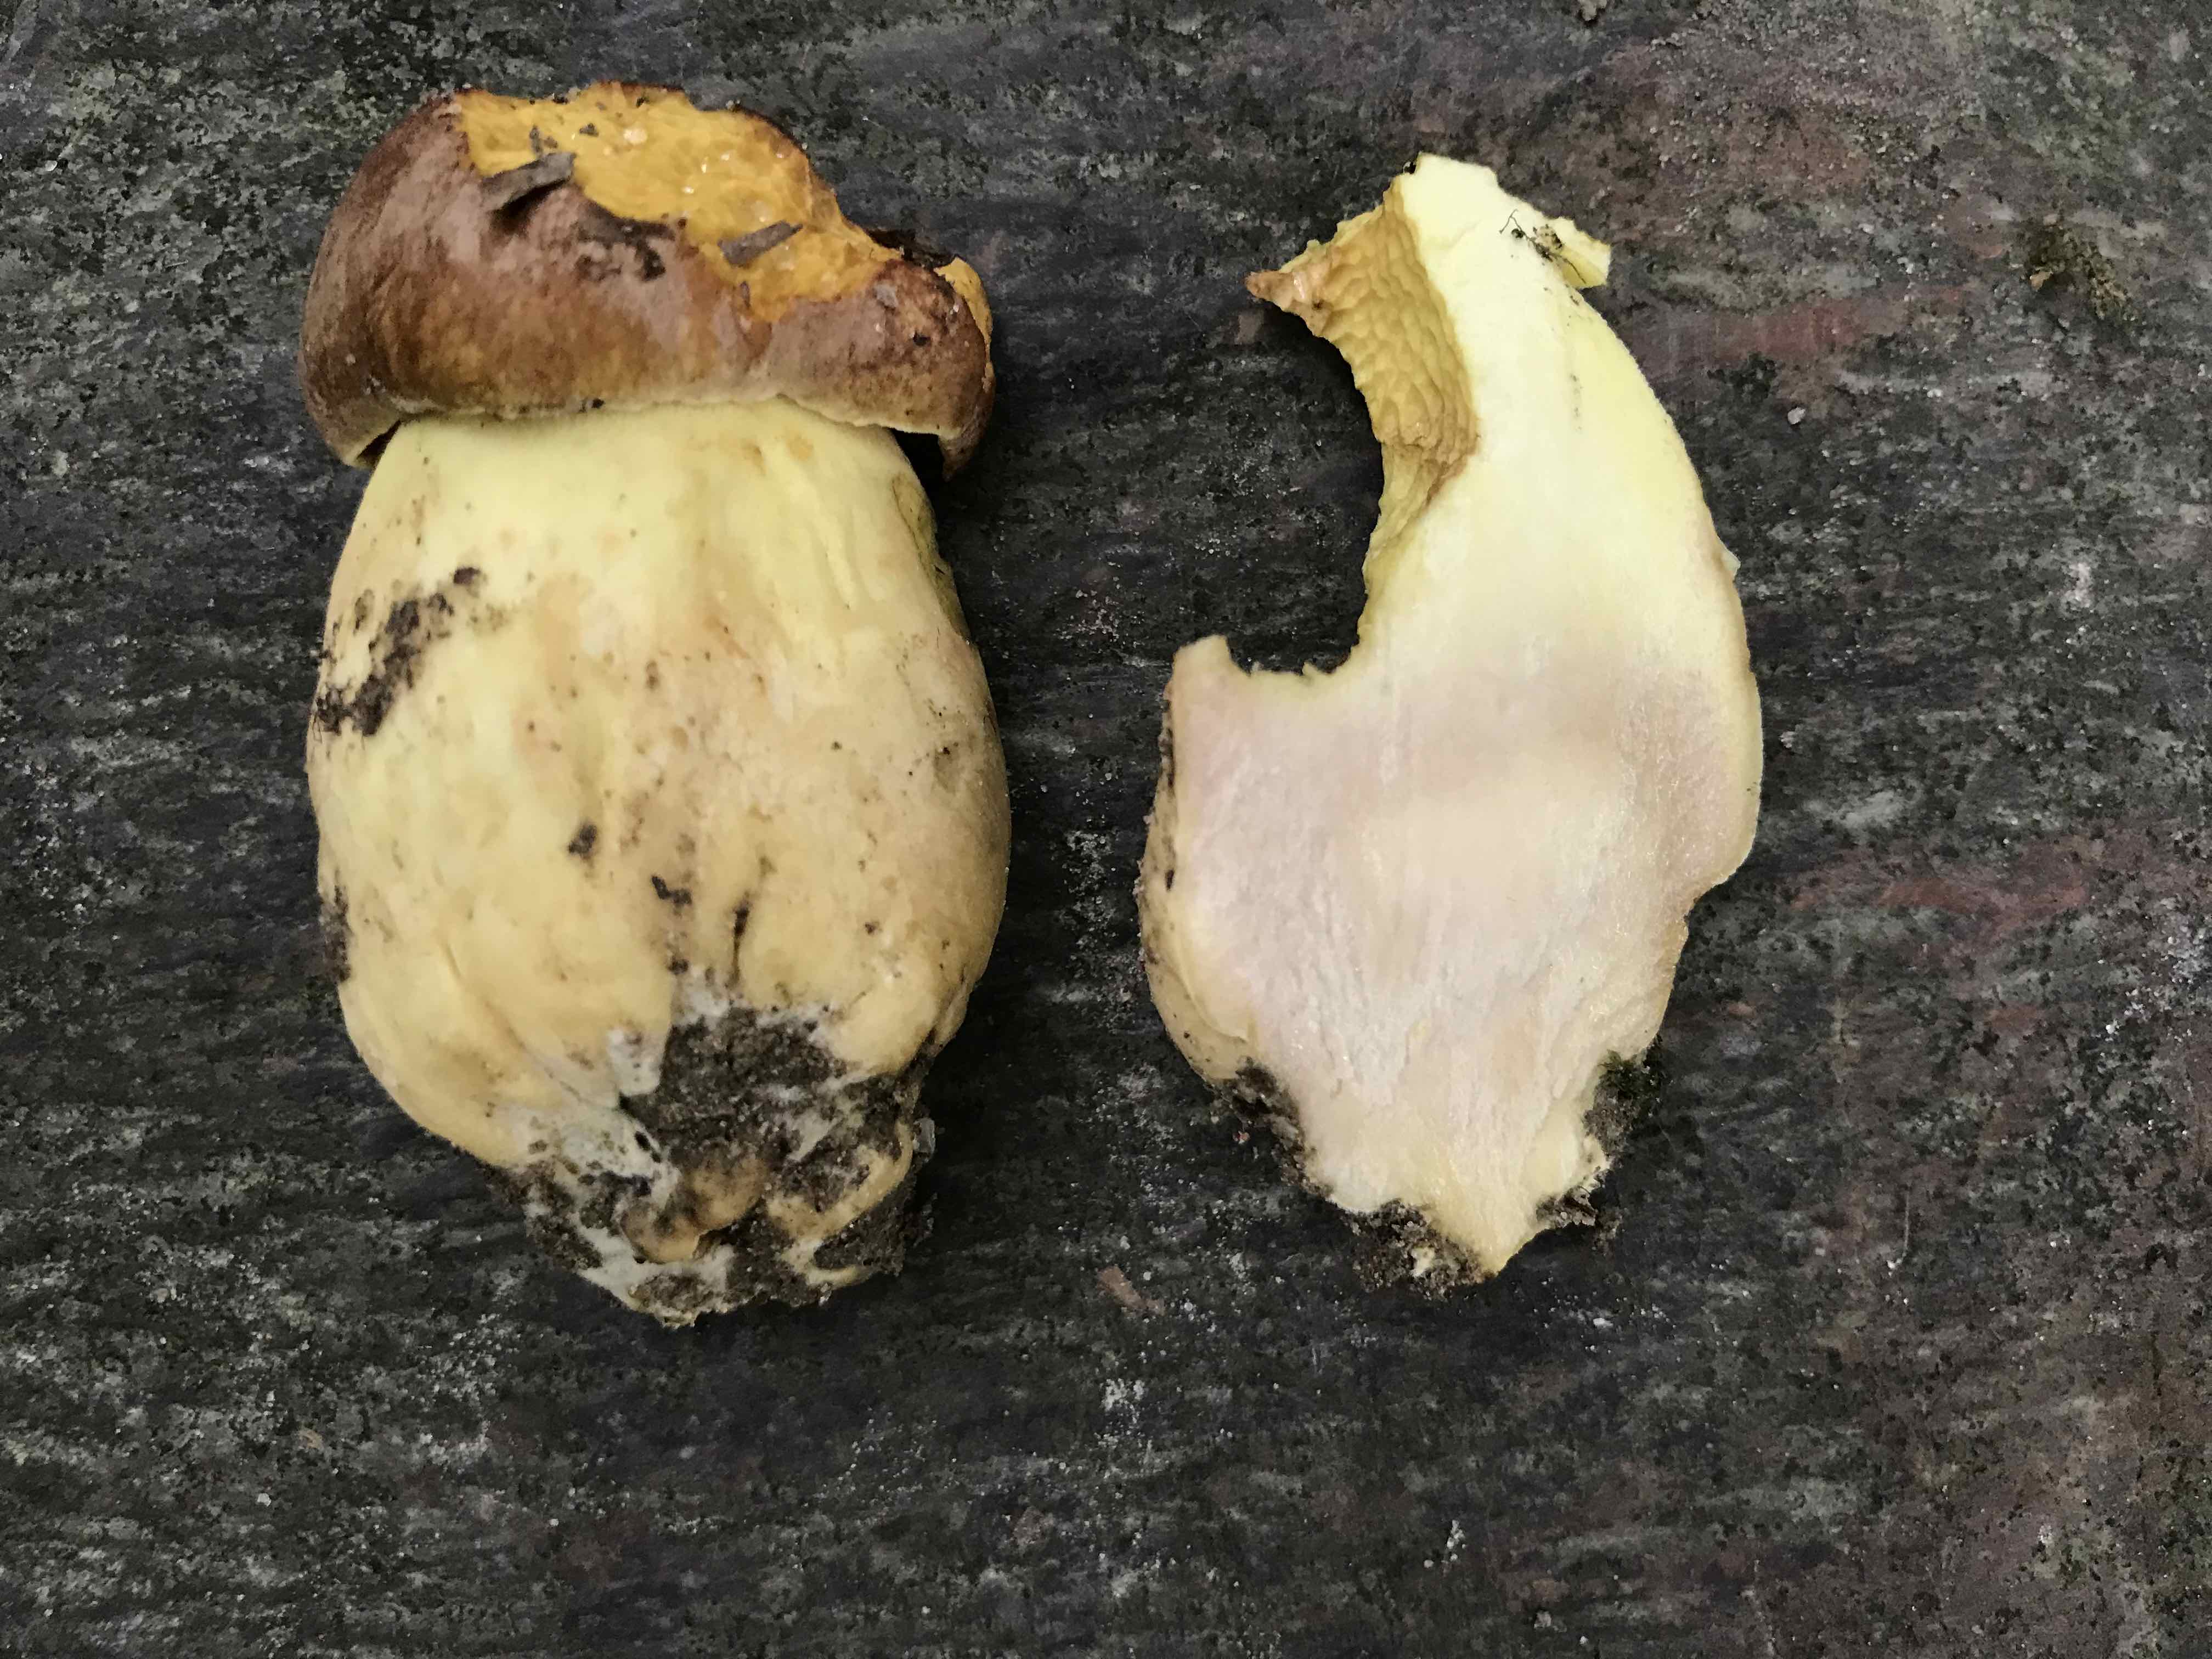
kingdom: Fungi
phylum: Basidiomycota
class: Agaricomycetes
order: Boletales
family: Boletaceae
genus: Butyriboletus
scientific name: Butyriboletus appendiculatus
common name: tenstokket rørhat
